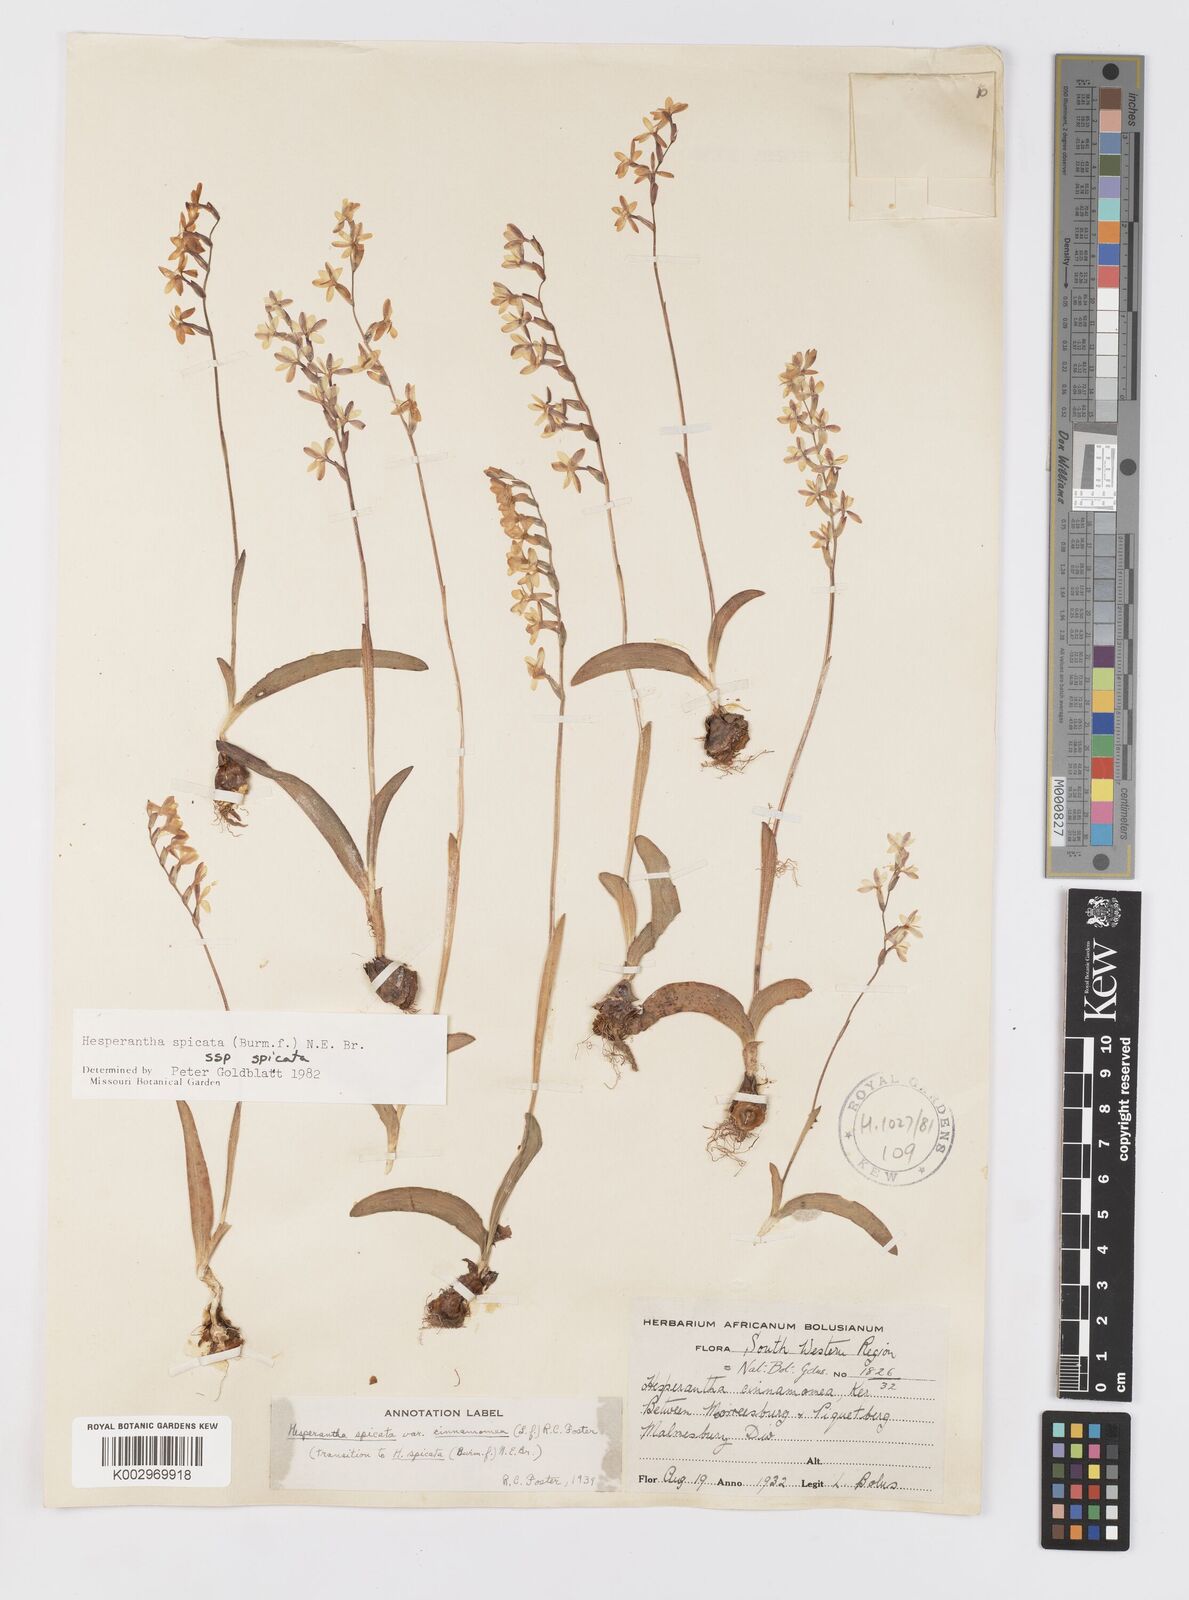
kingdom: Plantae
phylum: Tracheophyta
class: Liliopsida
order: Asparagales
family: Iridaceae
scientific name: Iridaceae
